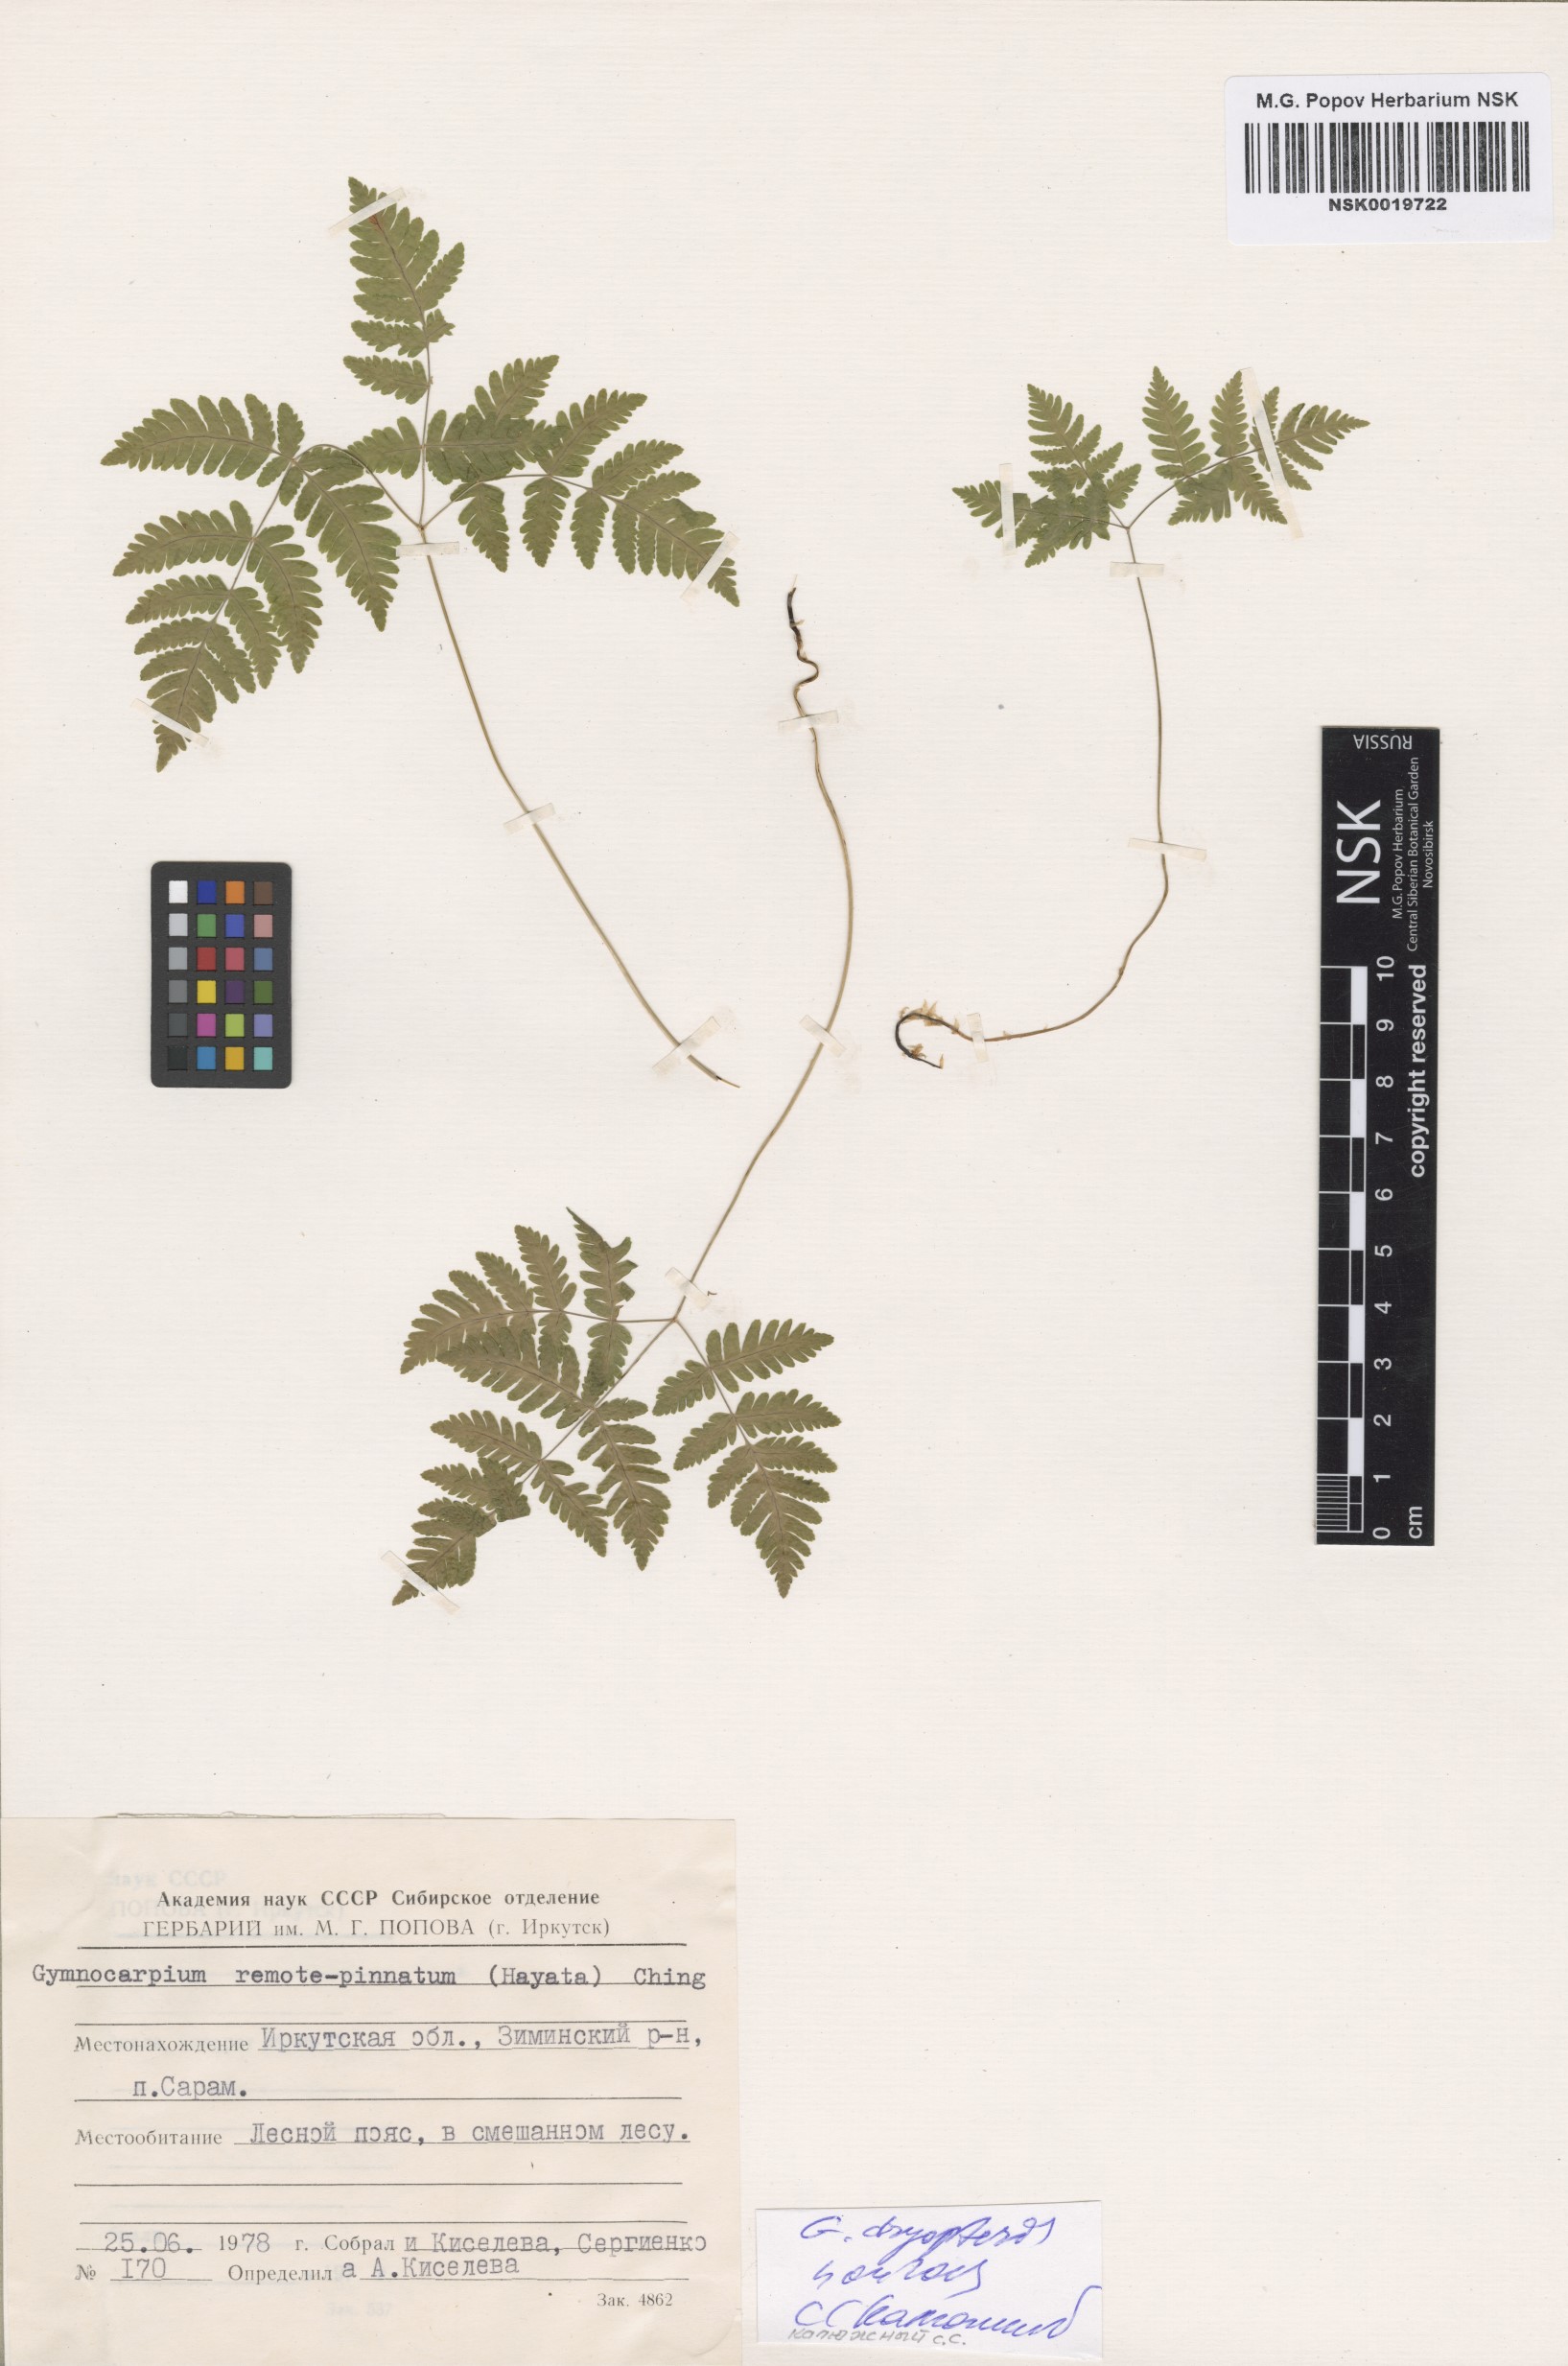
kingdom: Plantae
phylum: Tracheophyta
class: Polypodiopsida
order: Polypodiales
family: Cystopteridaceae
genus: Gymnocarpium
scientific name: Gymnocarpium dryopteris
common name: Oak fern
